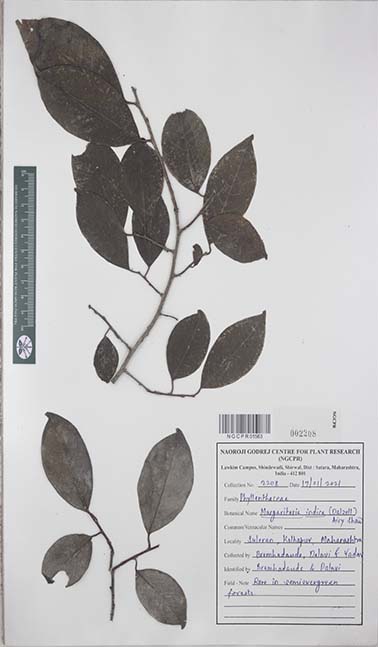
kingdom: Plantae
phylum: Tracheophyta
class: Magnoliopsida
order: Malpighiales
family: Phyllanthaceae
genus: Margaritaria
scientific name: Margaritaria indica
